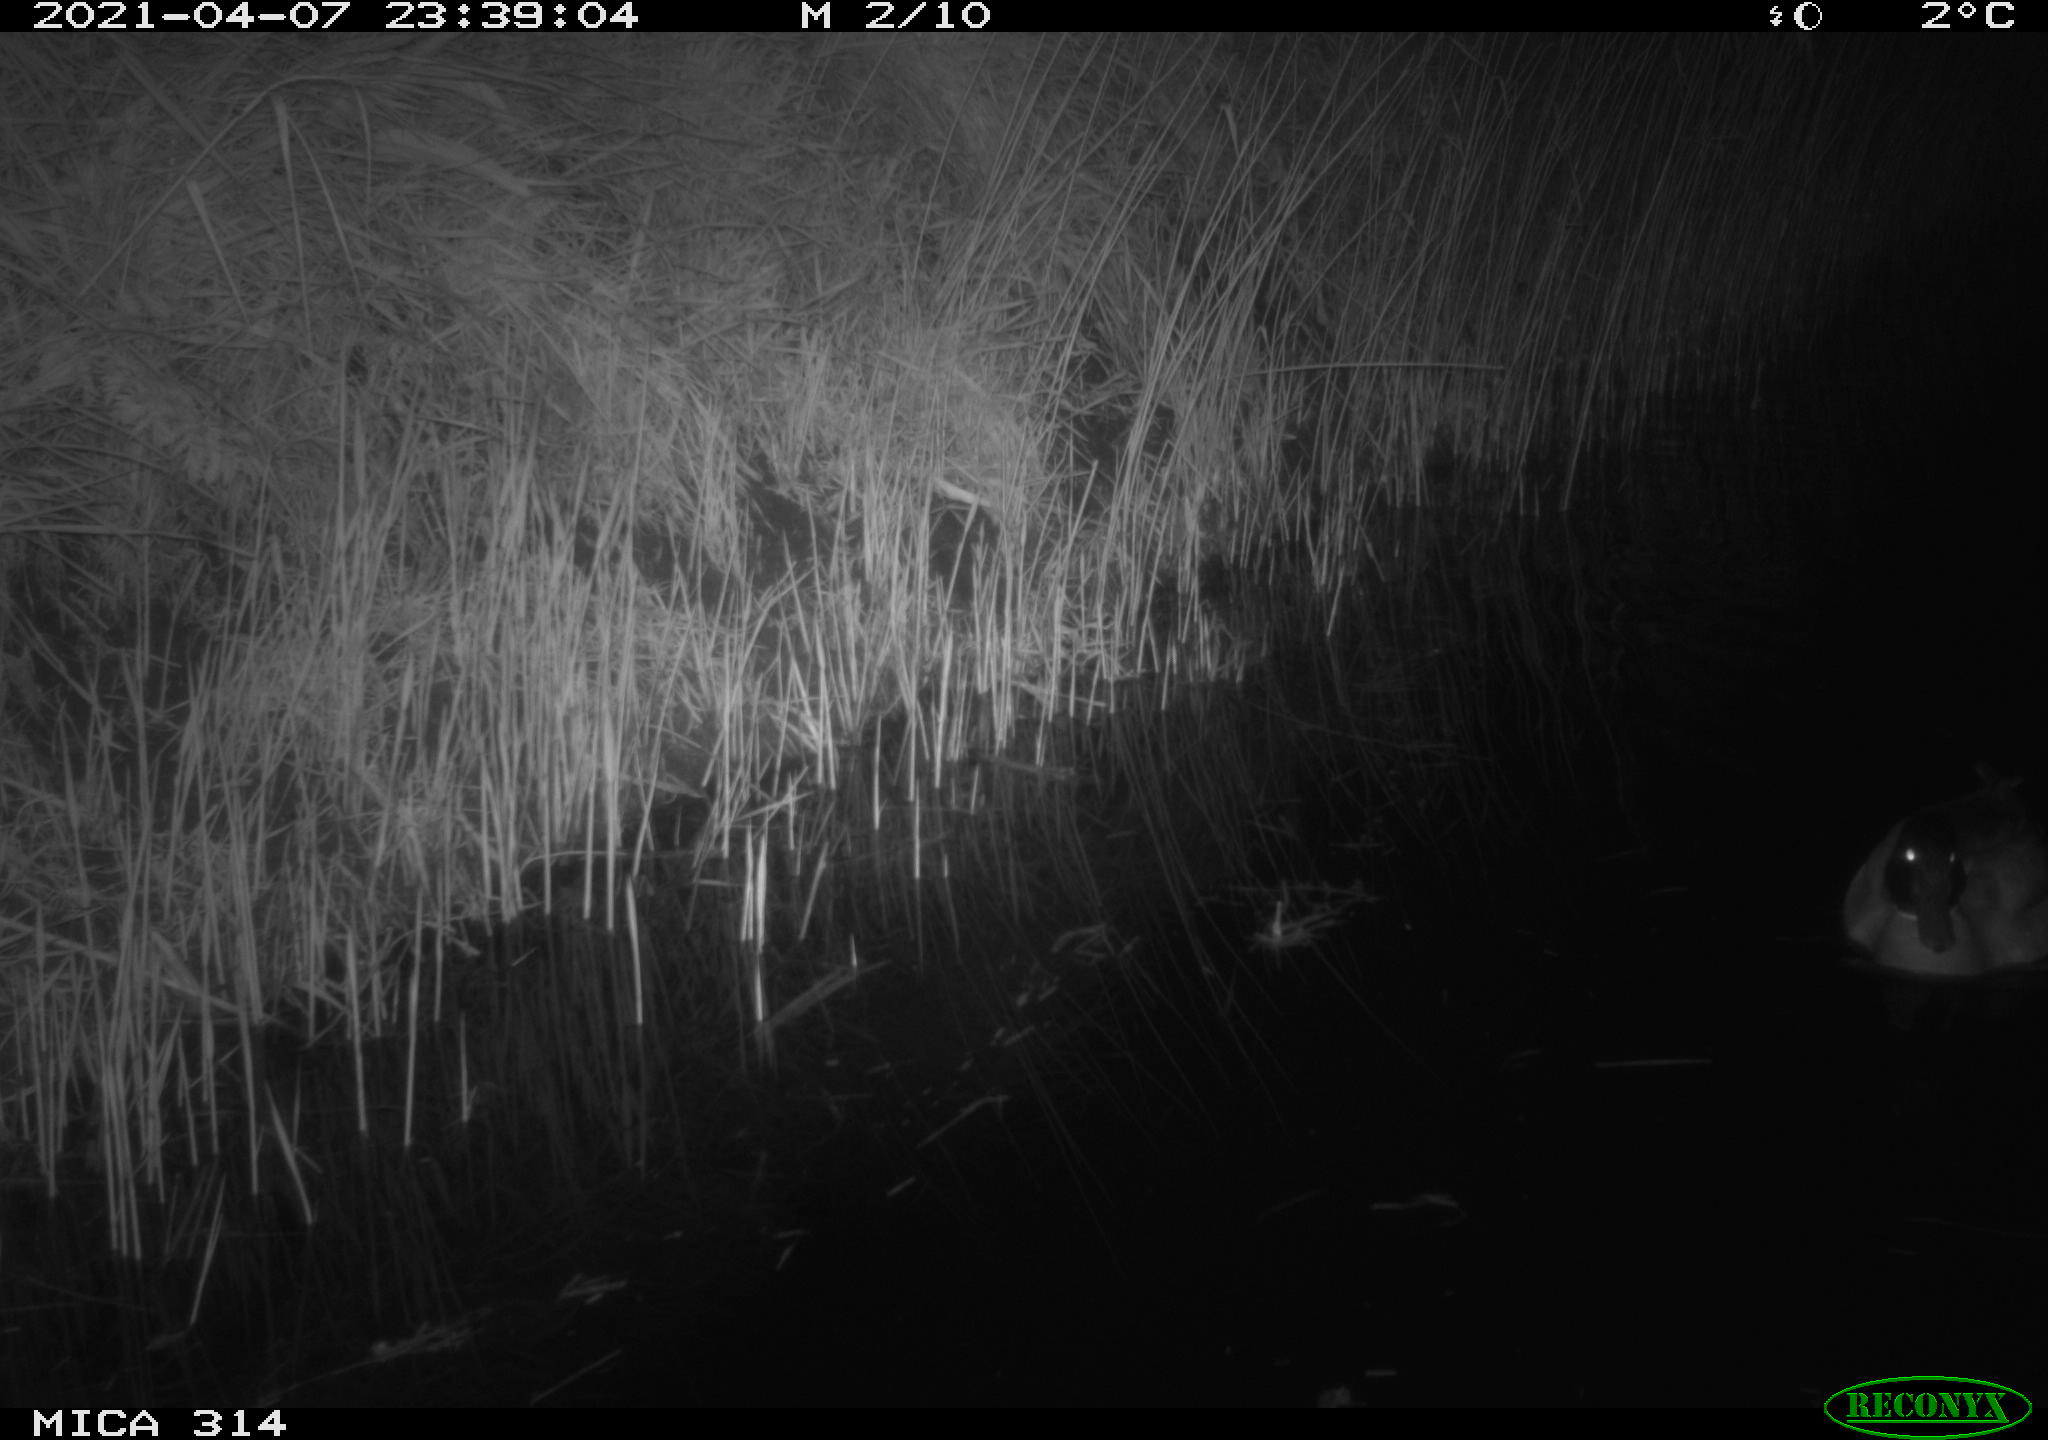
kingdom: Animalia
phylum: Chordata
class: Aves
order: Anseriformes
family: Anatidae
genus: Anas
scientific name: Anas platyrhynchos
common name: Mallard
